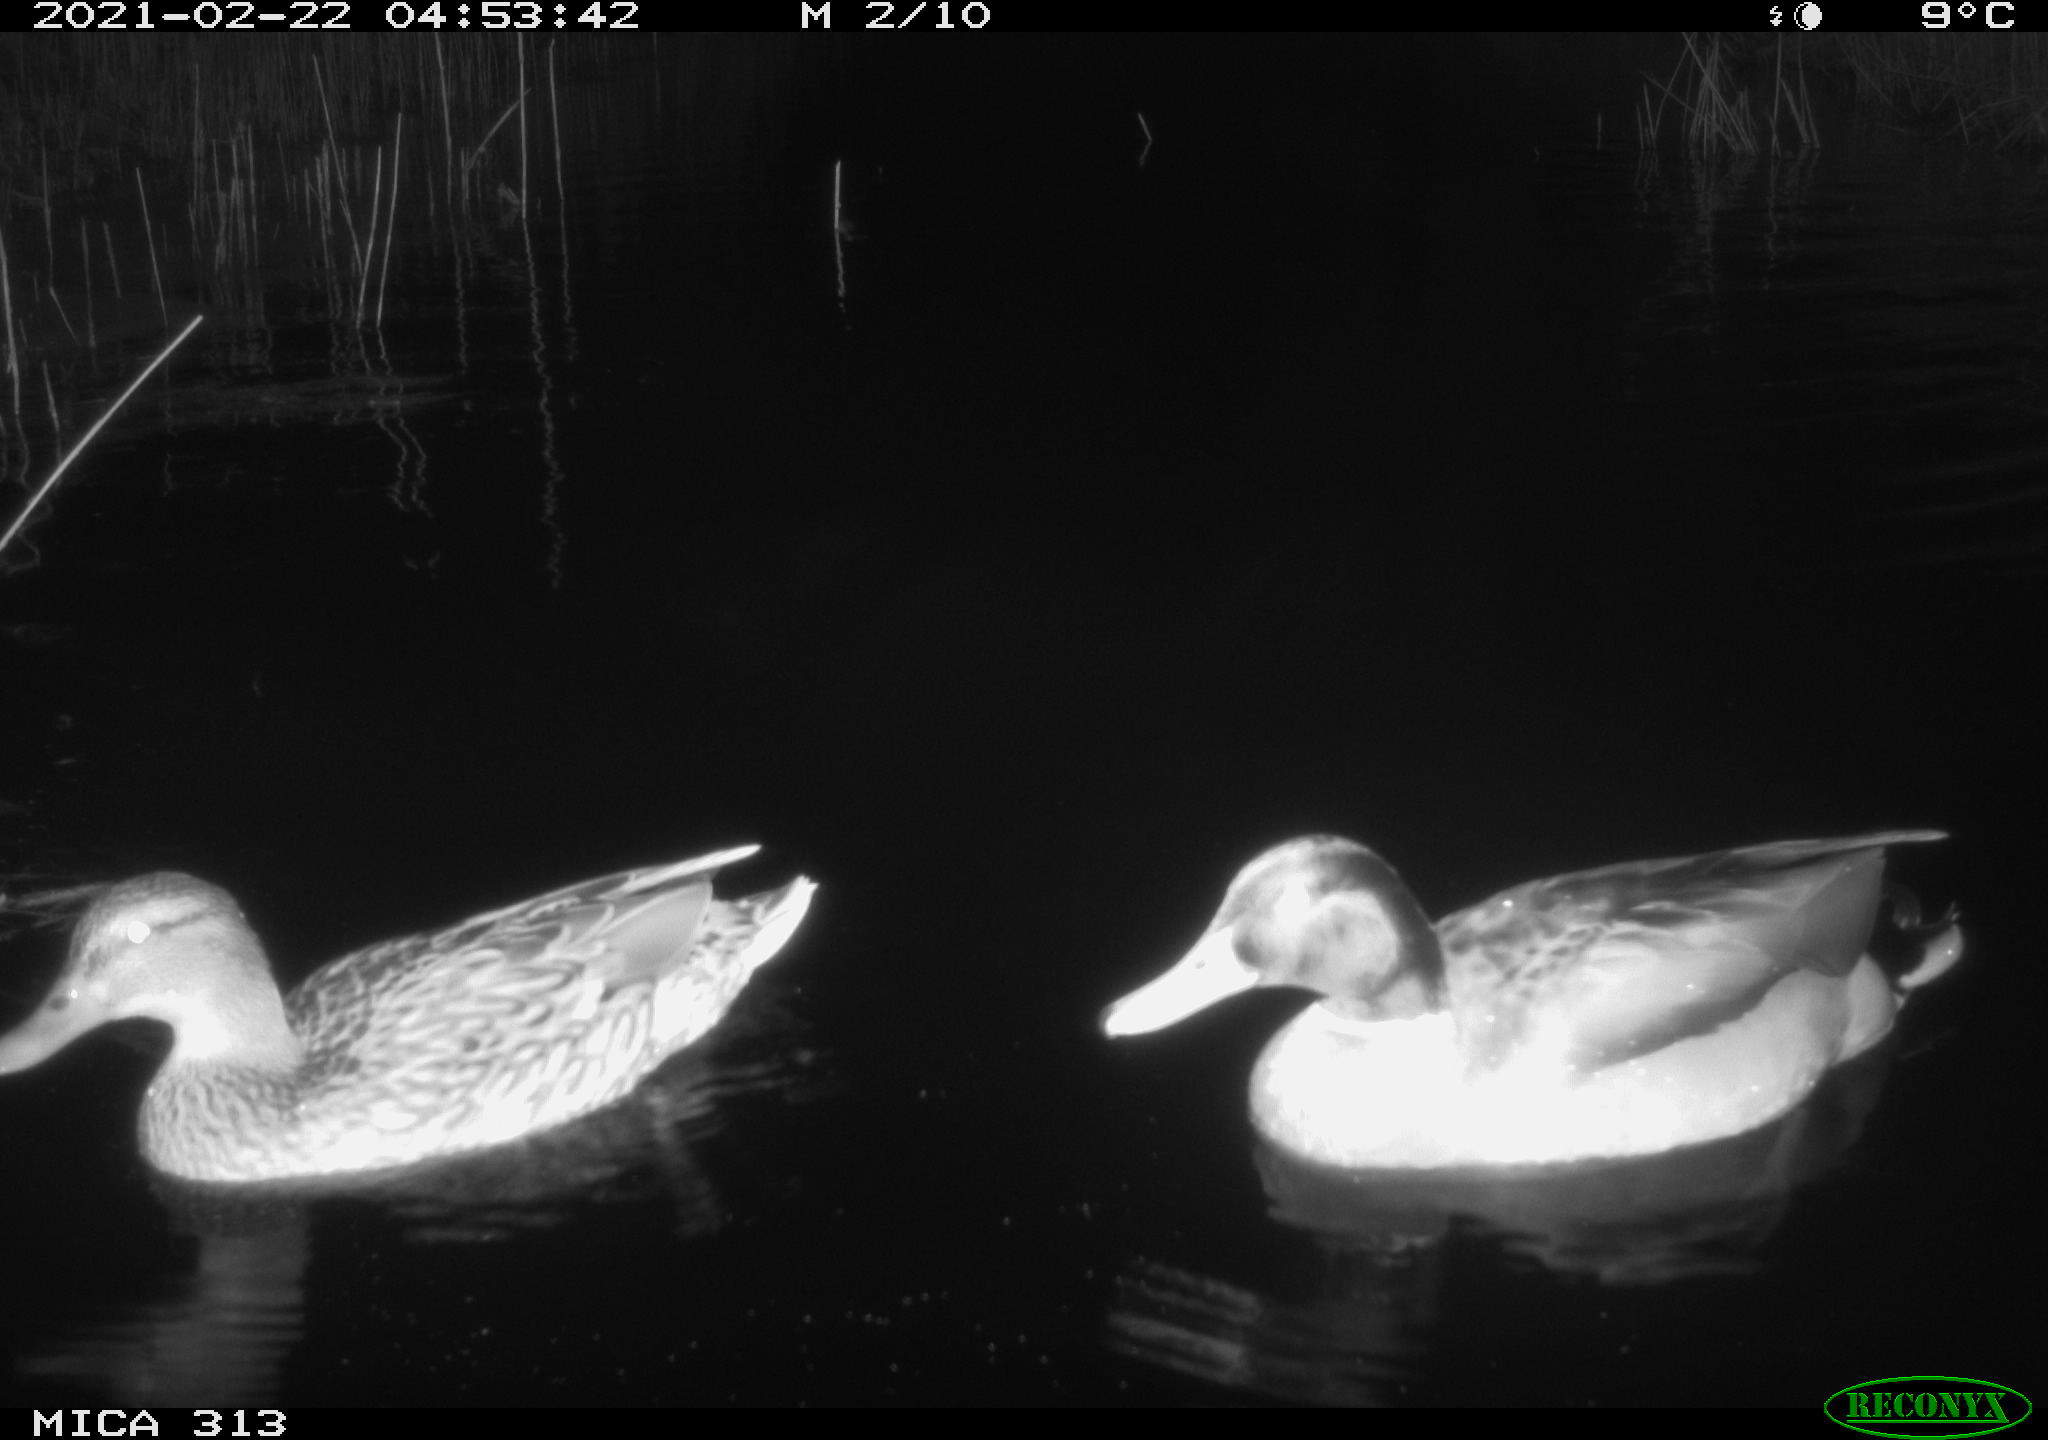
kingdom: Animalia
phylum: Chordata
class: Aves
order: Anseriformes
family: Anatidae
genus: Anas
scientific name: Anas
